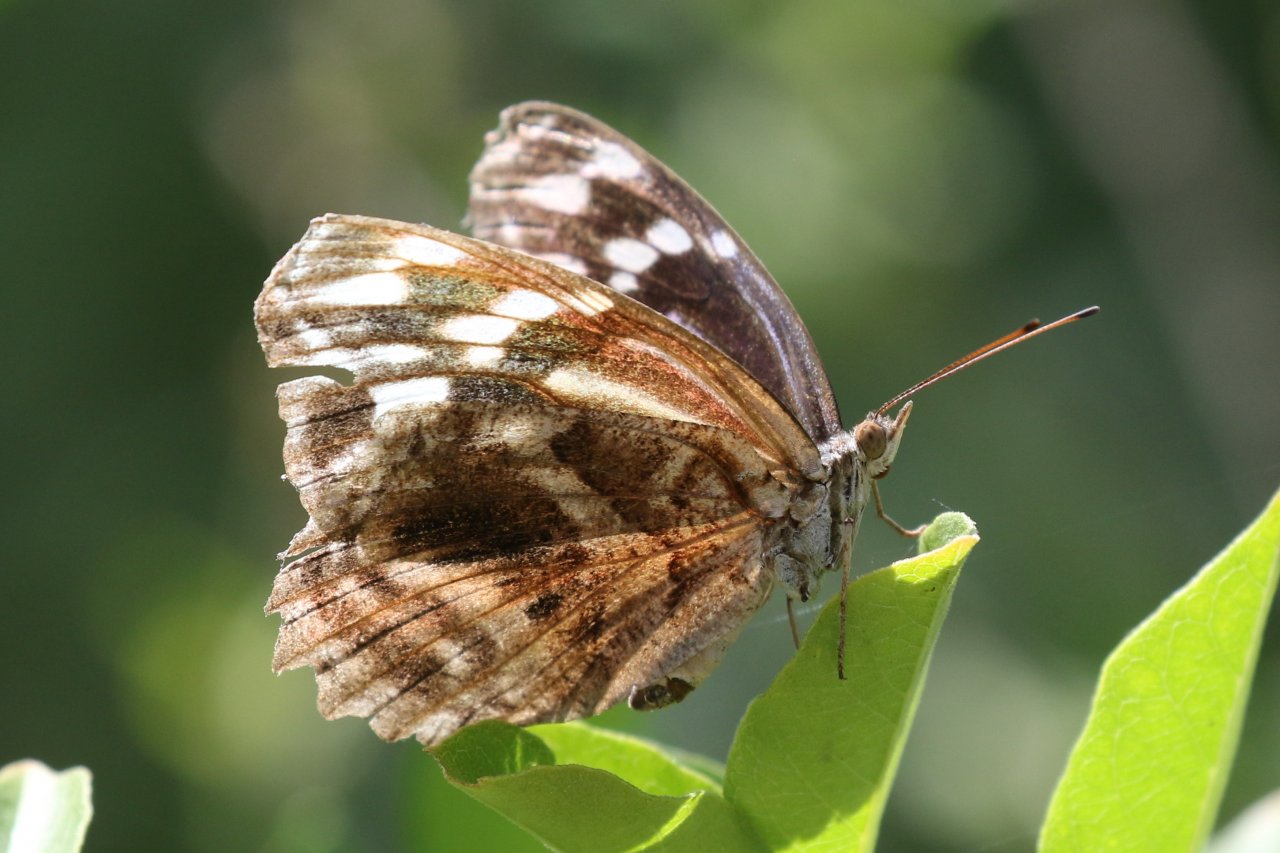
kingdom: Animalia
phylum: Arthropoda
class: Insecta
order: Lepidoptera
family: Nymphalidae
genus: Myscelia
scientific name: Myscelia ethusa
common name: Mexican Bluewing
